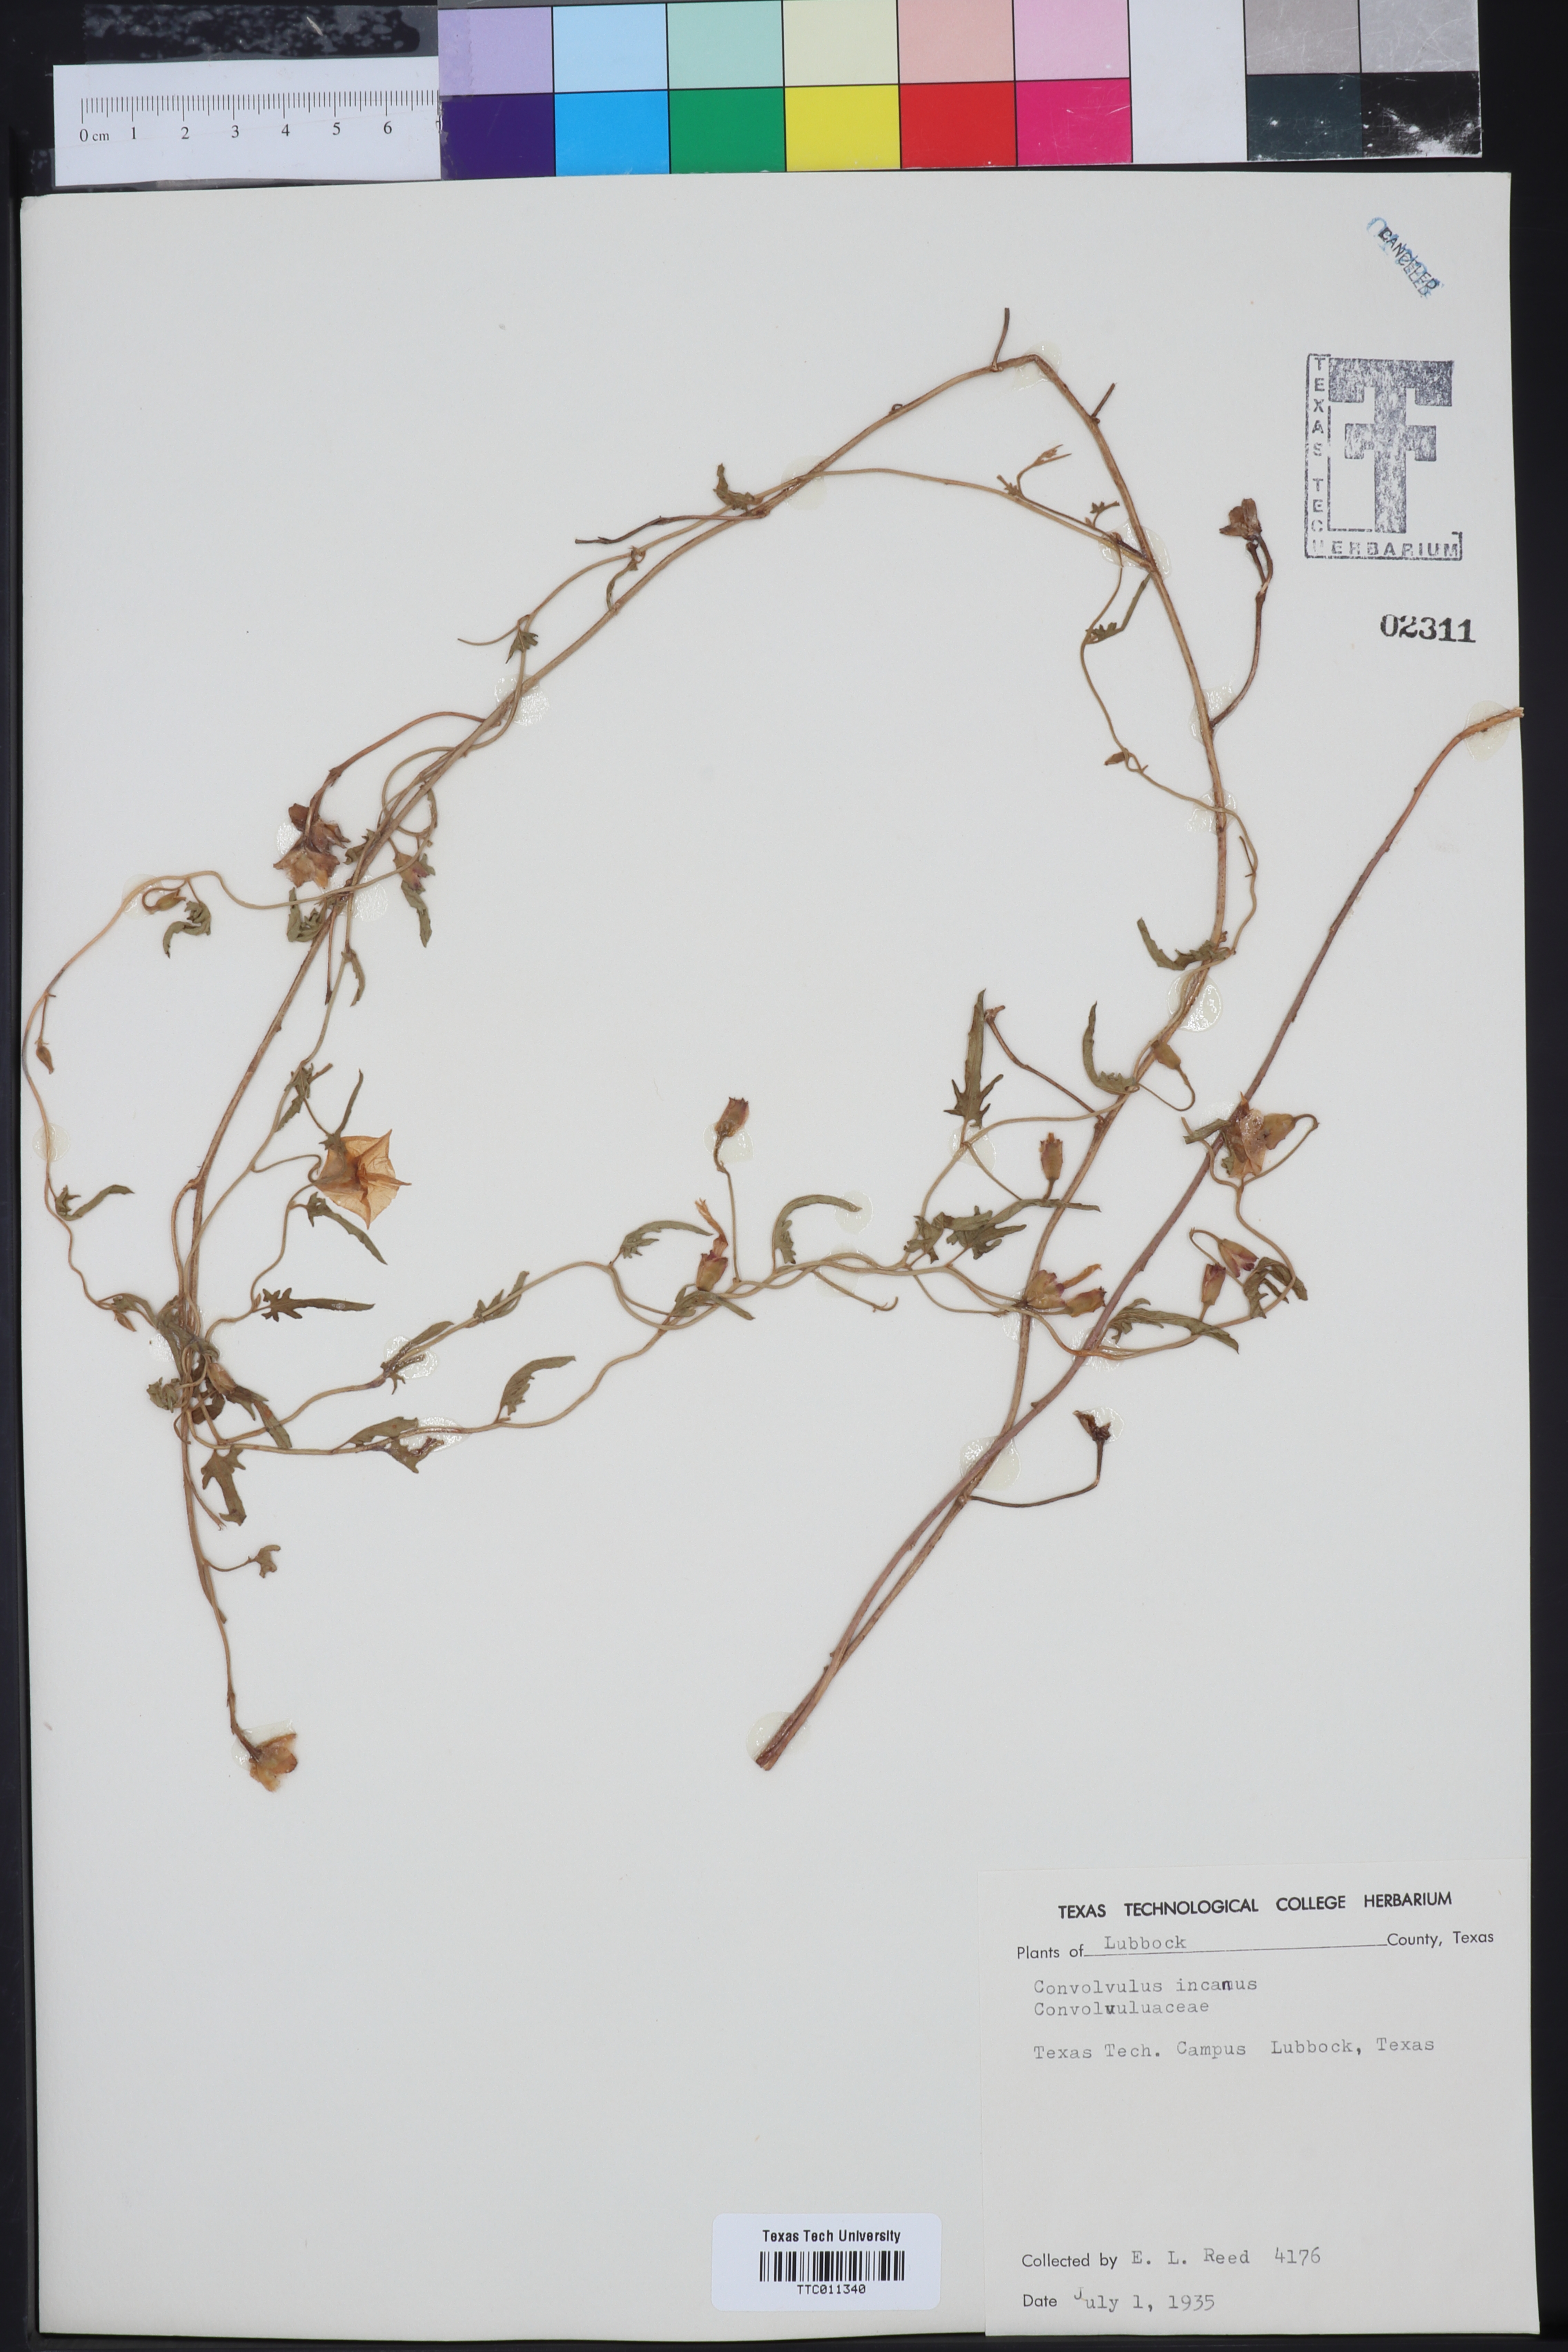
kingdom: Plantae
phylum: Tracheophyta
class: Magnoliopsida
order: Solanales
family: Convolvulaceae
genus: Convolvulus
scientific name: Convolvulus hermanniae
